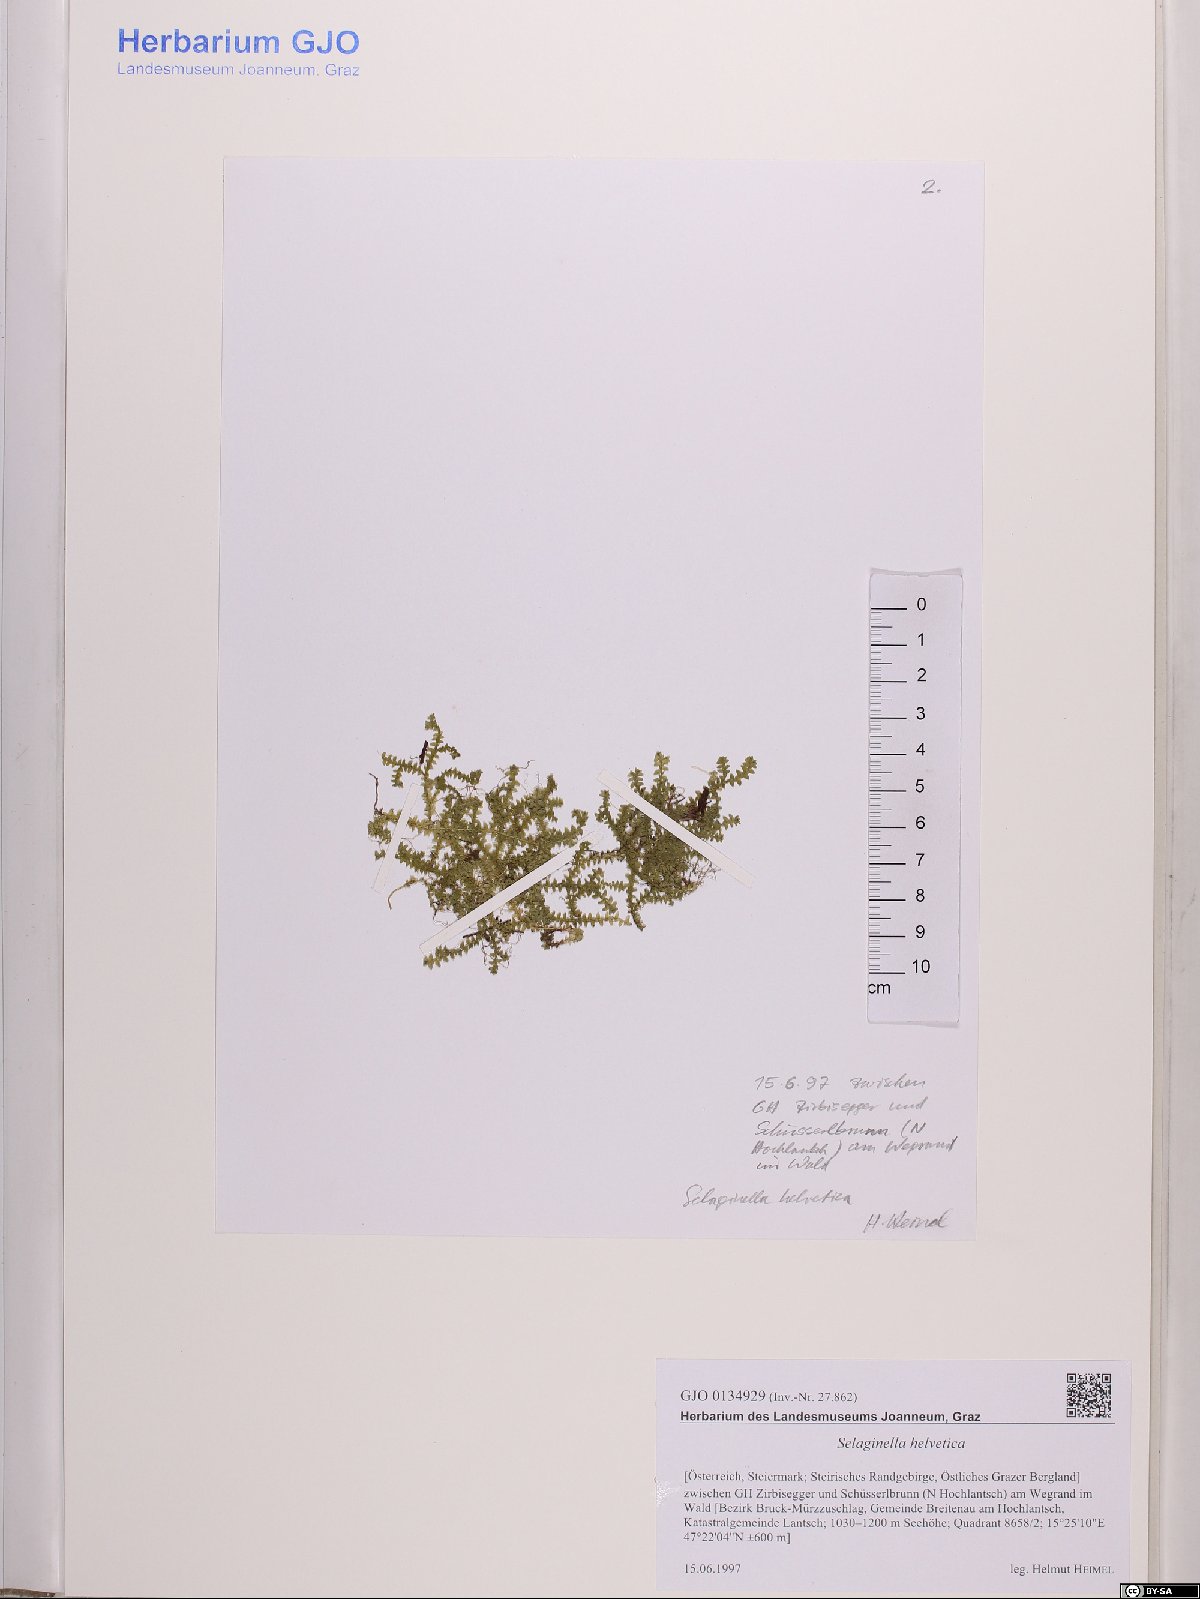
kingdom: Plantae
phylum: Tracheophyta
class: Lycopodiopsida
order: Selaginellales
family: Selaginellaceae
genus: Selaginella
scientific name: Selaginella helvetica
